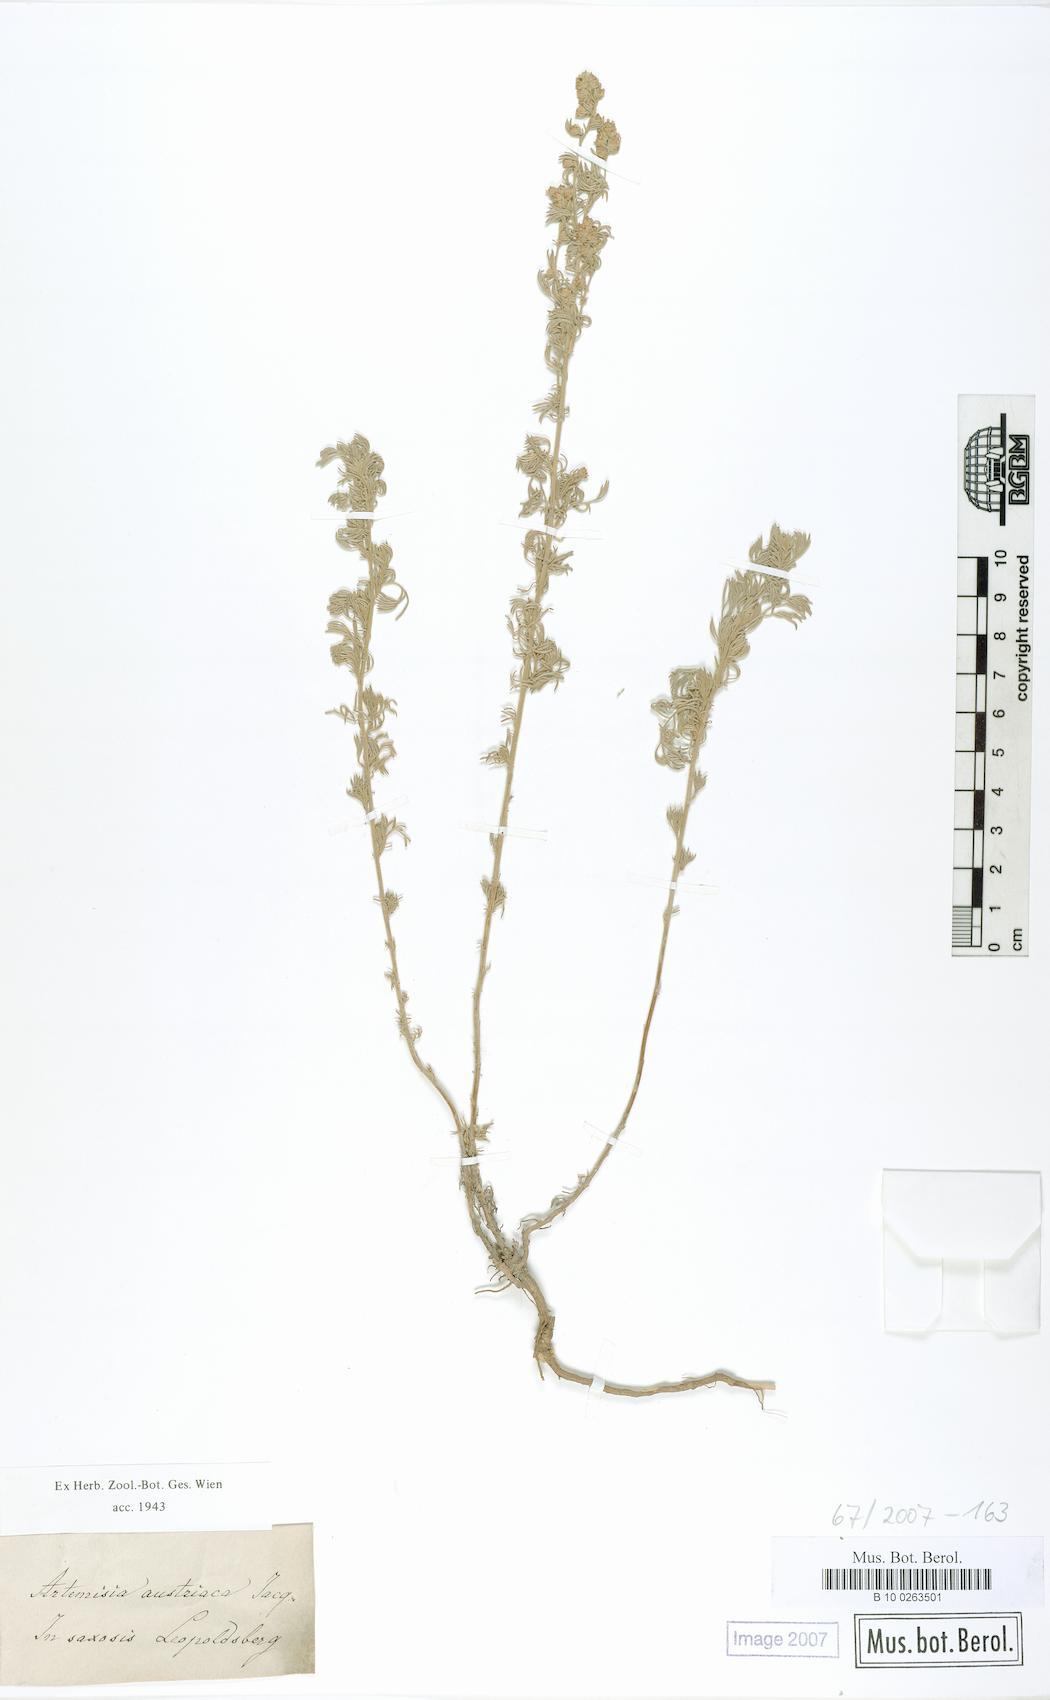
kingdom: Plantae
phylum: Tracheophyta
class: Magnoliopsida
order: Asterales
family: Asteraceae
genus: Artemisia
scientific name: Artemisia austriaca
